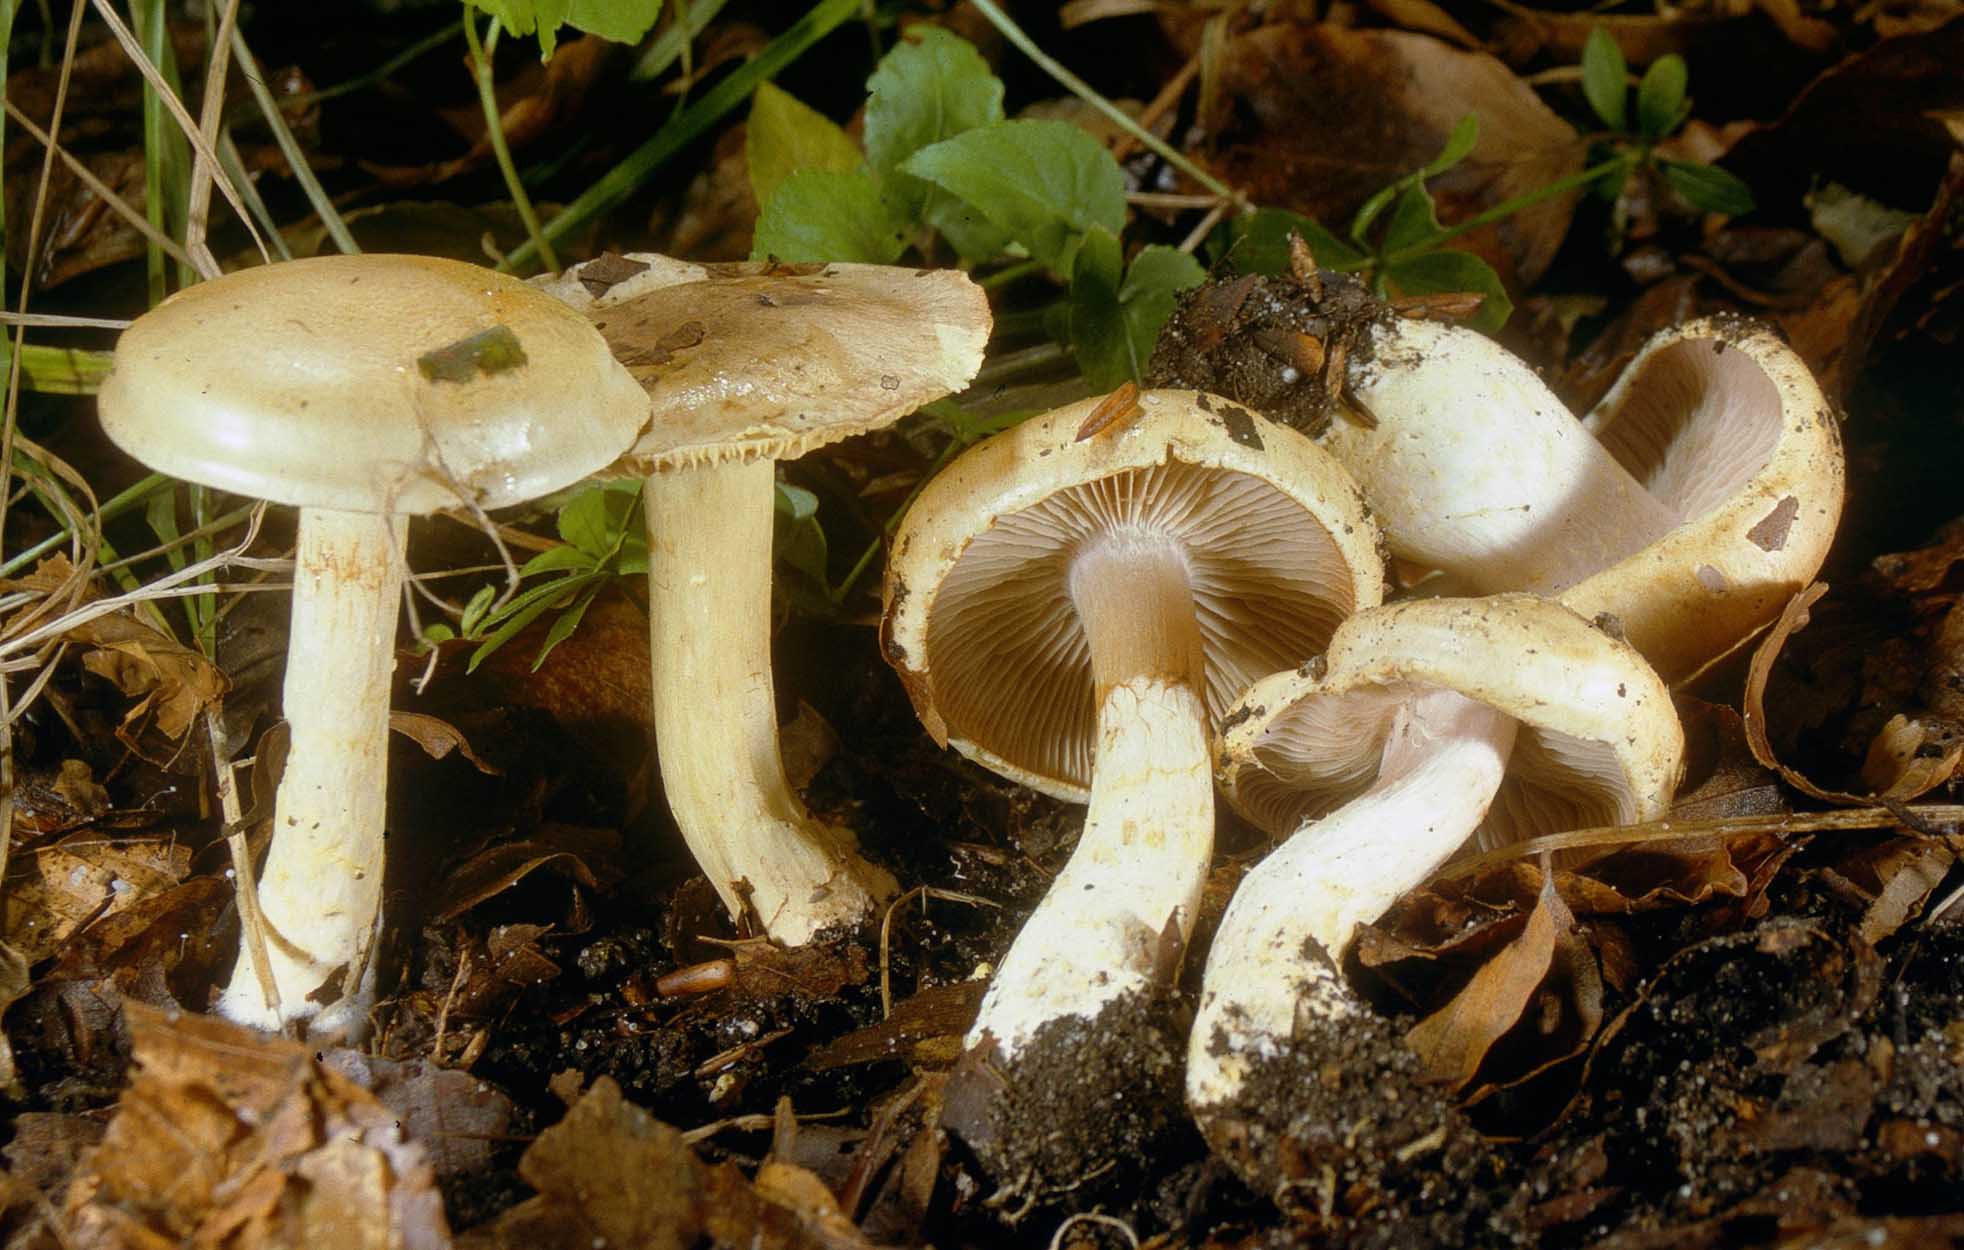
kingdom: Fungi
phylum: Basidiomycota
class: Agaricomycetes
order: Agaricales
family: Cortinariaceae
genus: Phlegmacium
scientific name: Phlegmacium cliduchus
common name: majs-slørhat
